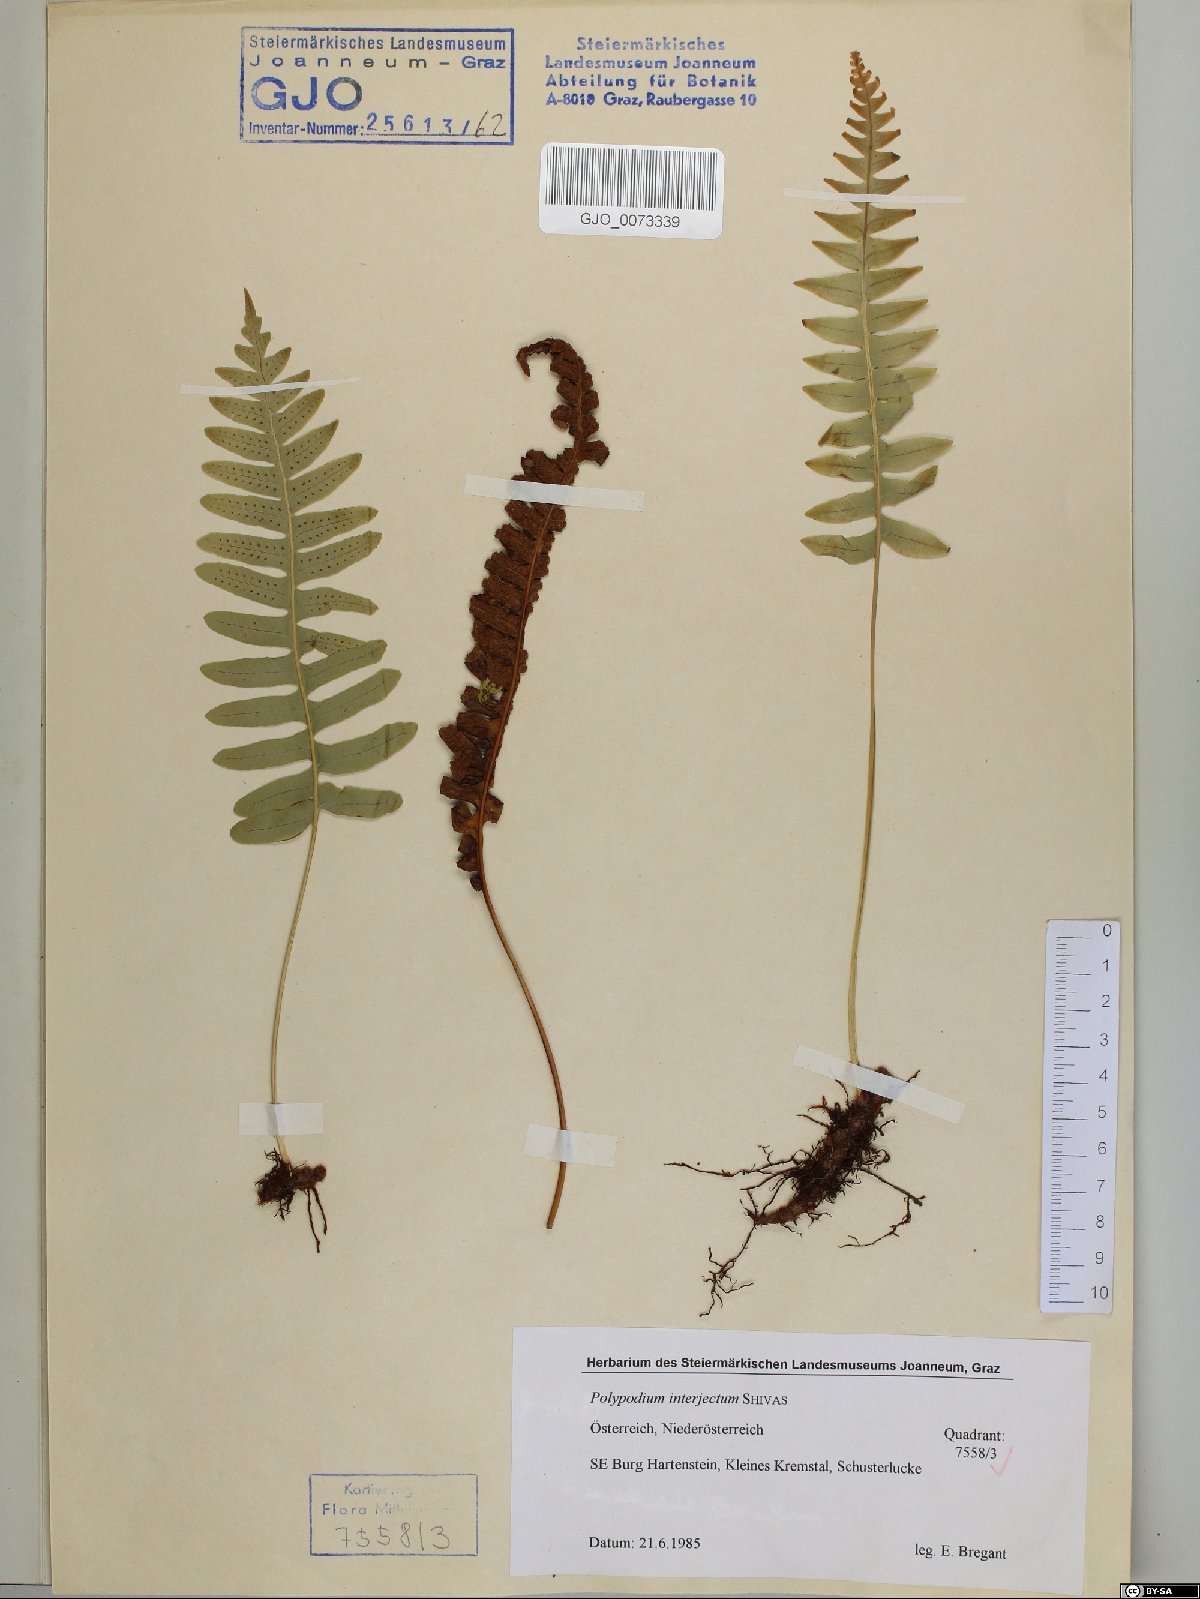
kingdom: Plantae
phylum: Tracheophyta
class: Polypodiopsida
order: Polypodiales
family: Polypodiaceae
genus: Polypodium
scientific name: Polypodium interjectum
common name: Intermediate polypody
